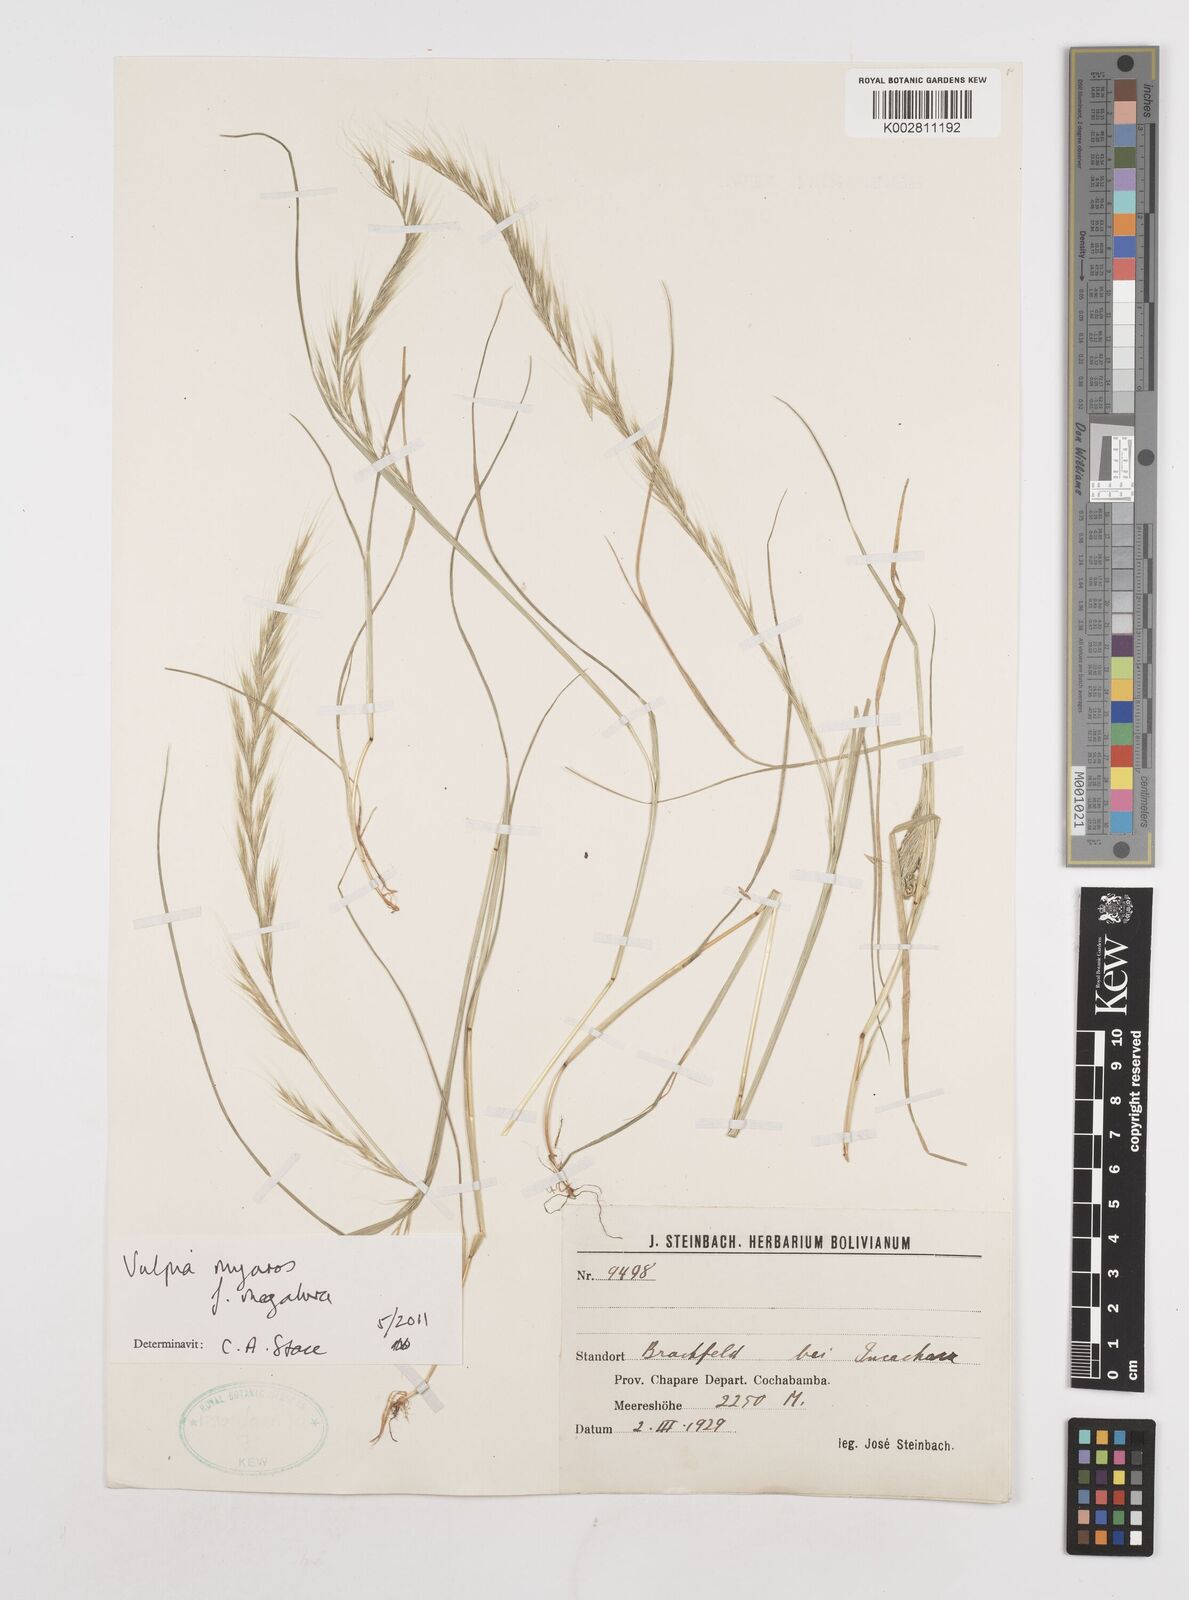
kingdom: Plantae
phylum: Tracheophyta
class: Liliopsida
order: Poales
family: Poaceae
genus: Festuca
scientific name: Festuca myuros
